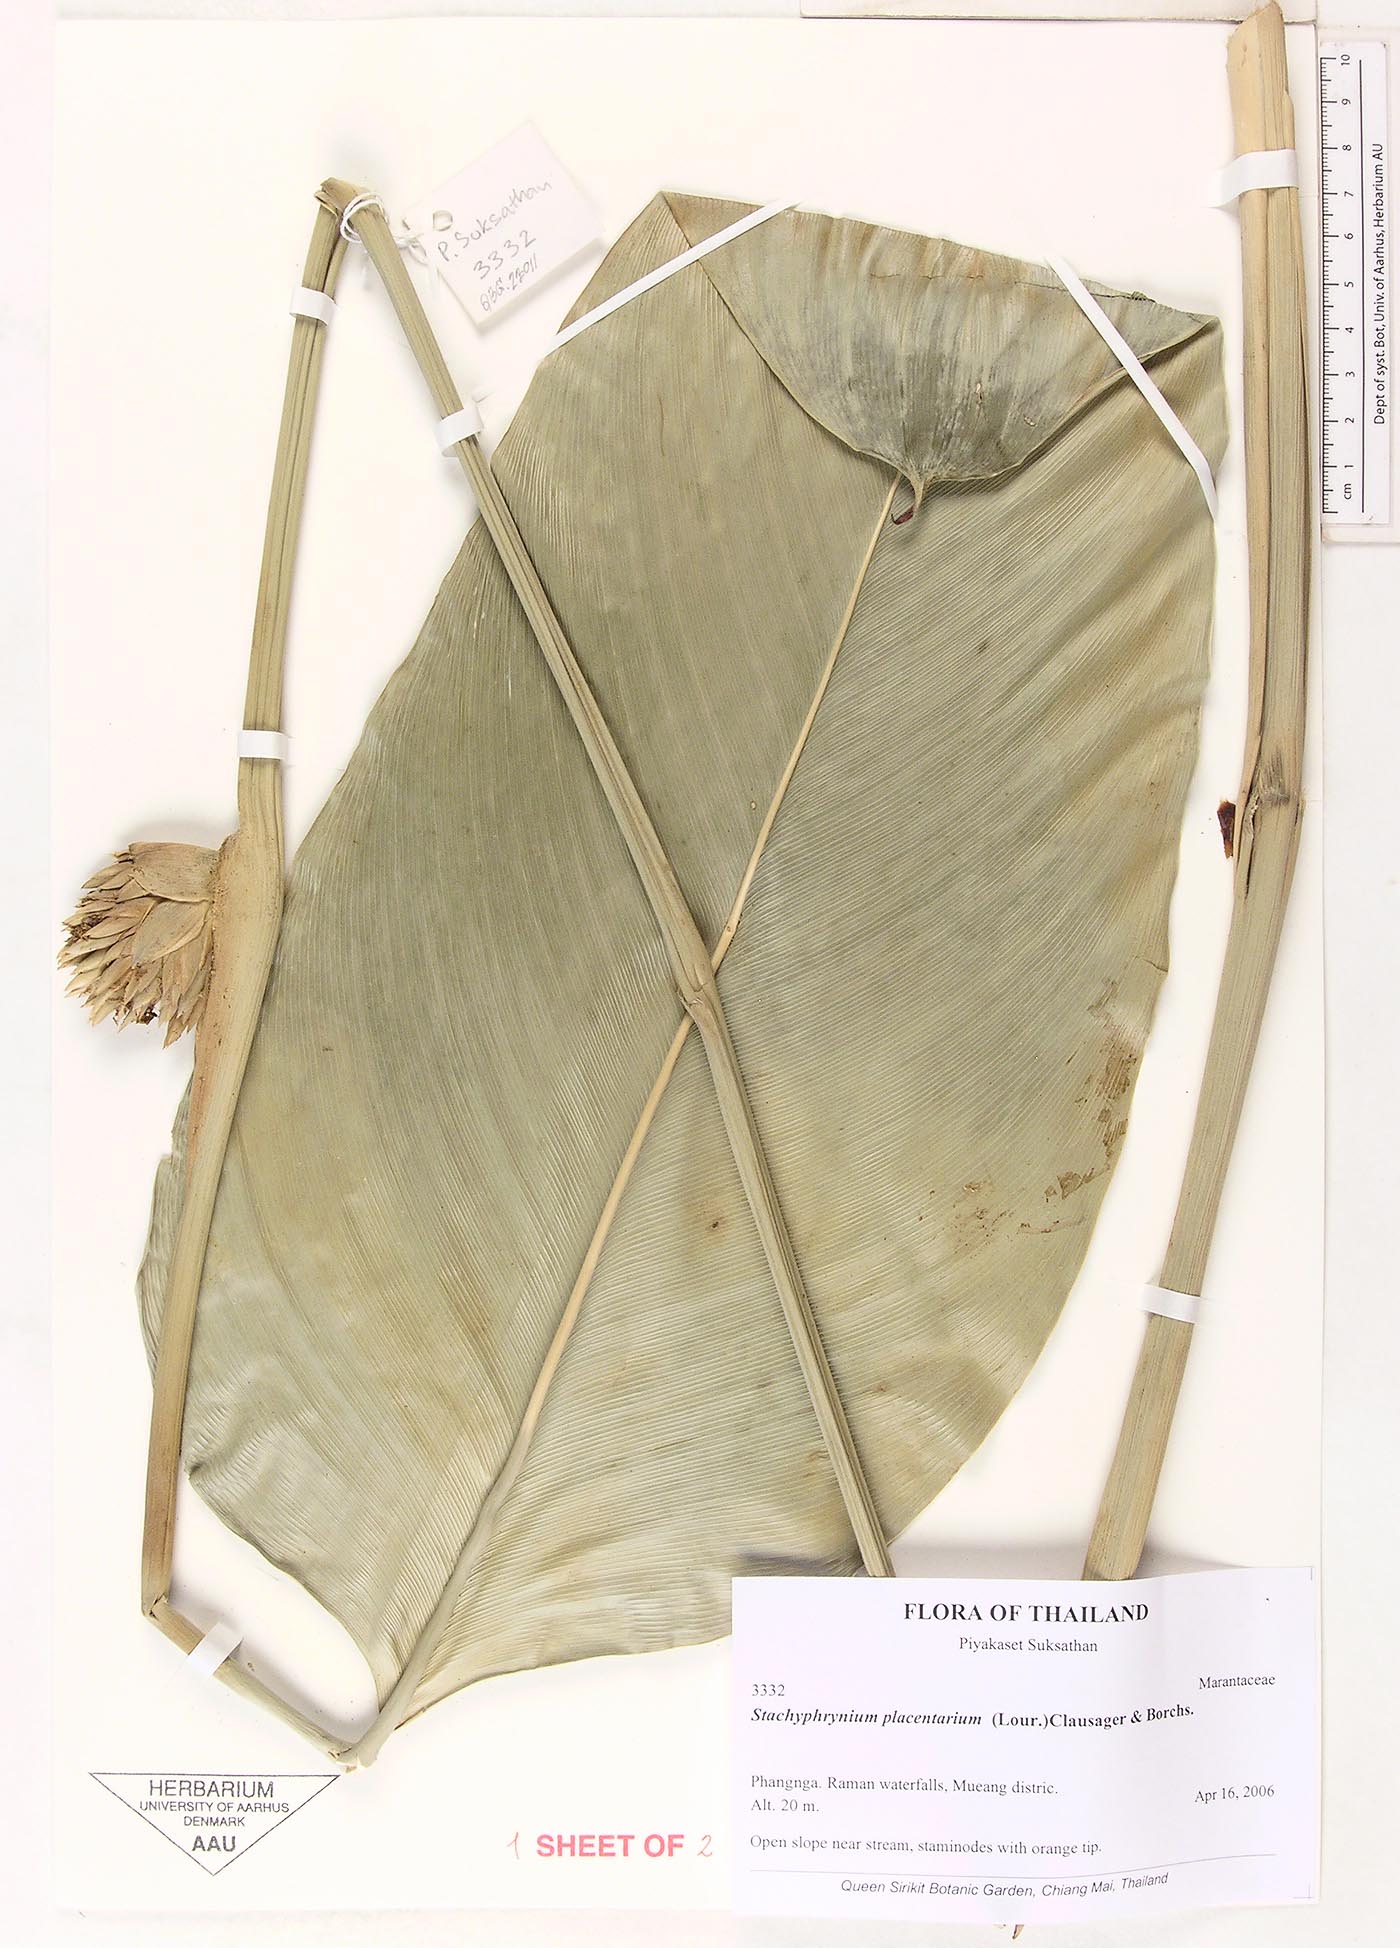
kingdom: Plantae
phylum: Tracheophyta
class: Liliopsida
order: Zingiberales
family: Marantaceae
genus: Stachyphrynium
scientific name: Stachyphrynium placentarium
